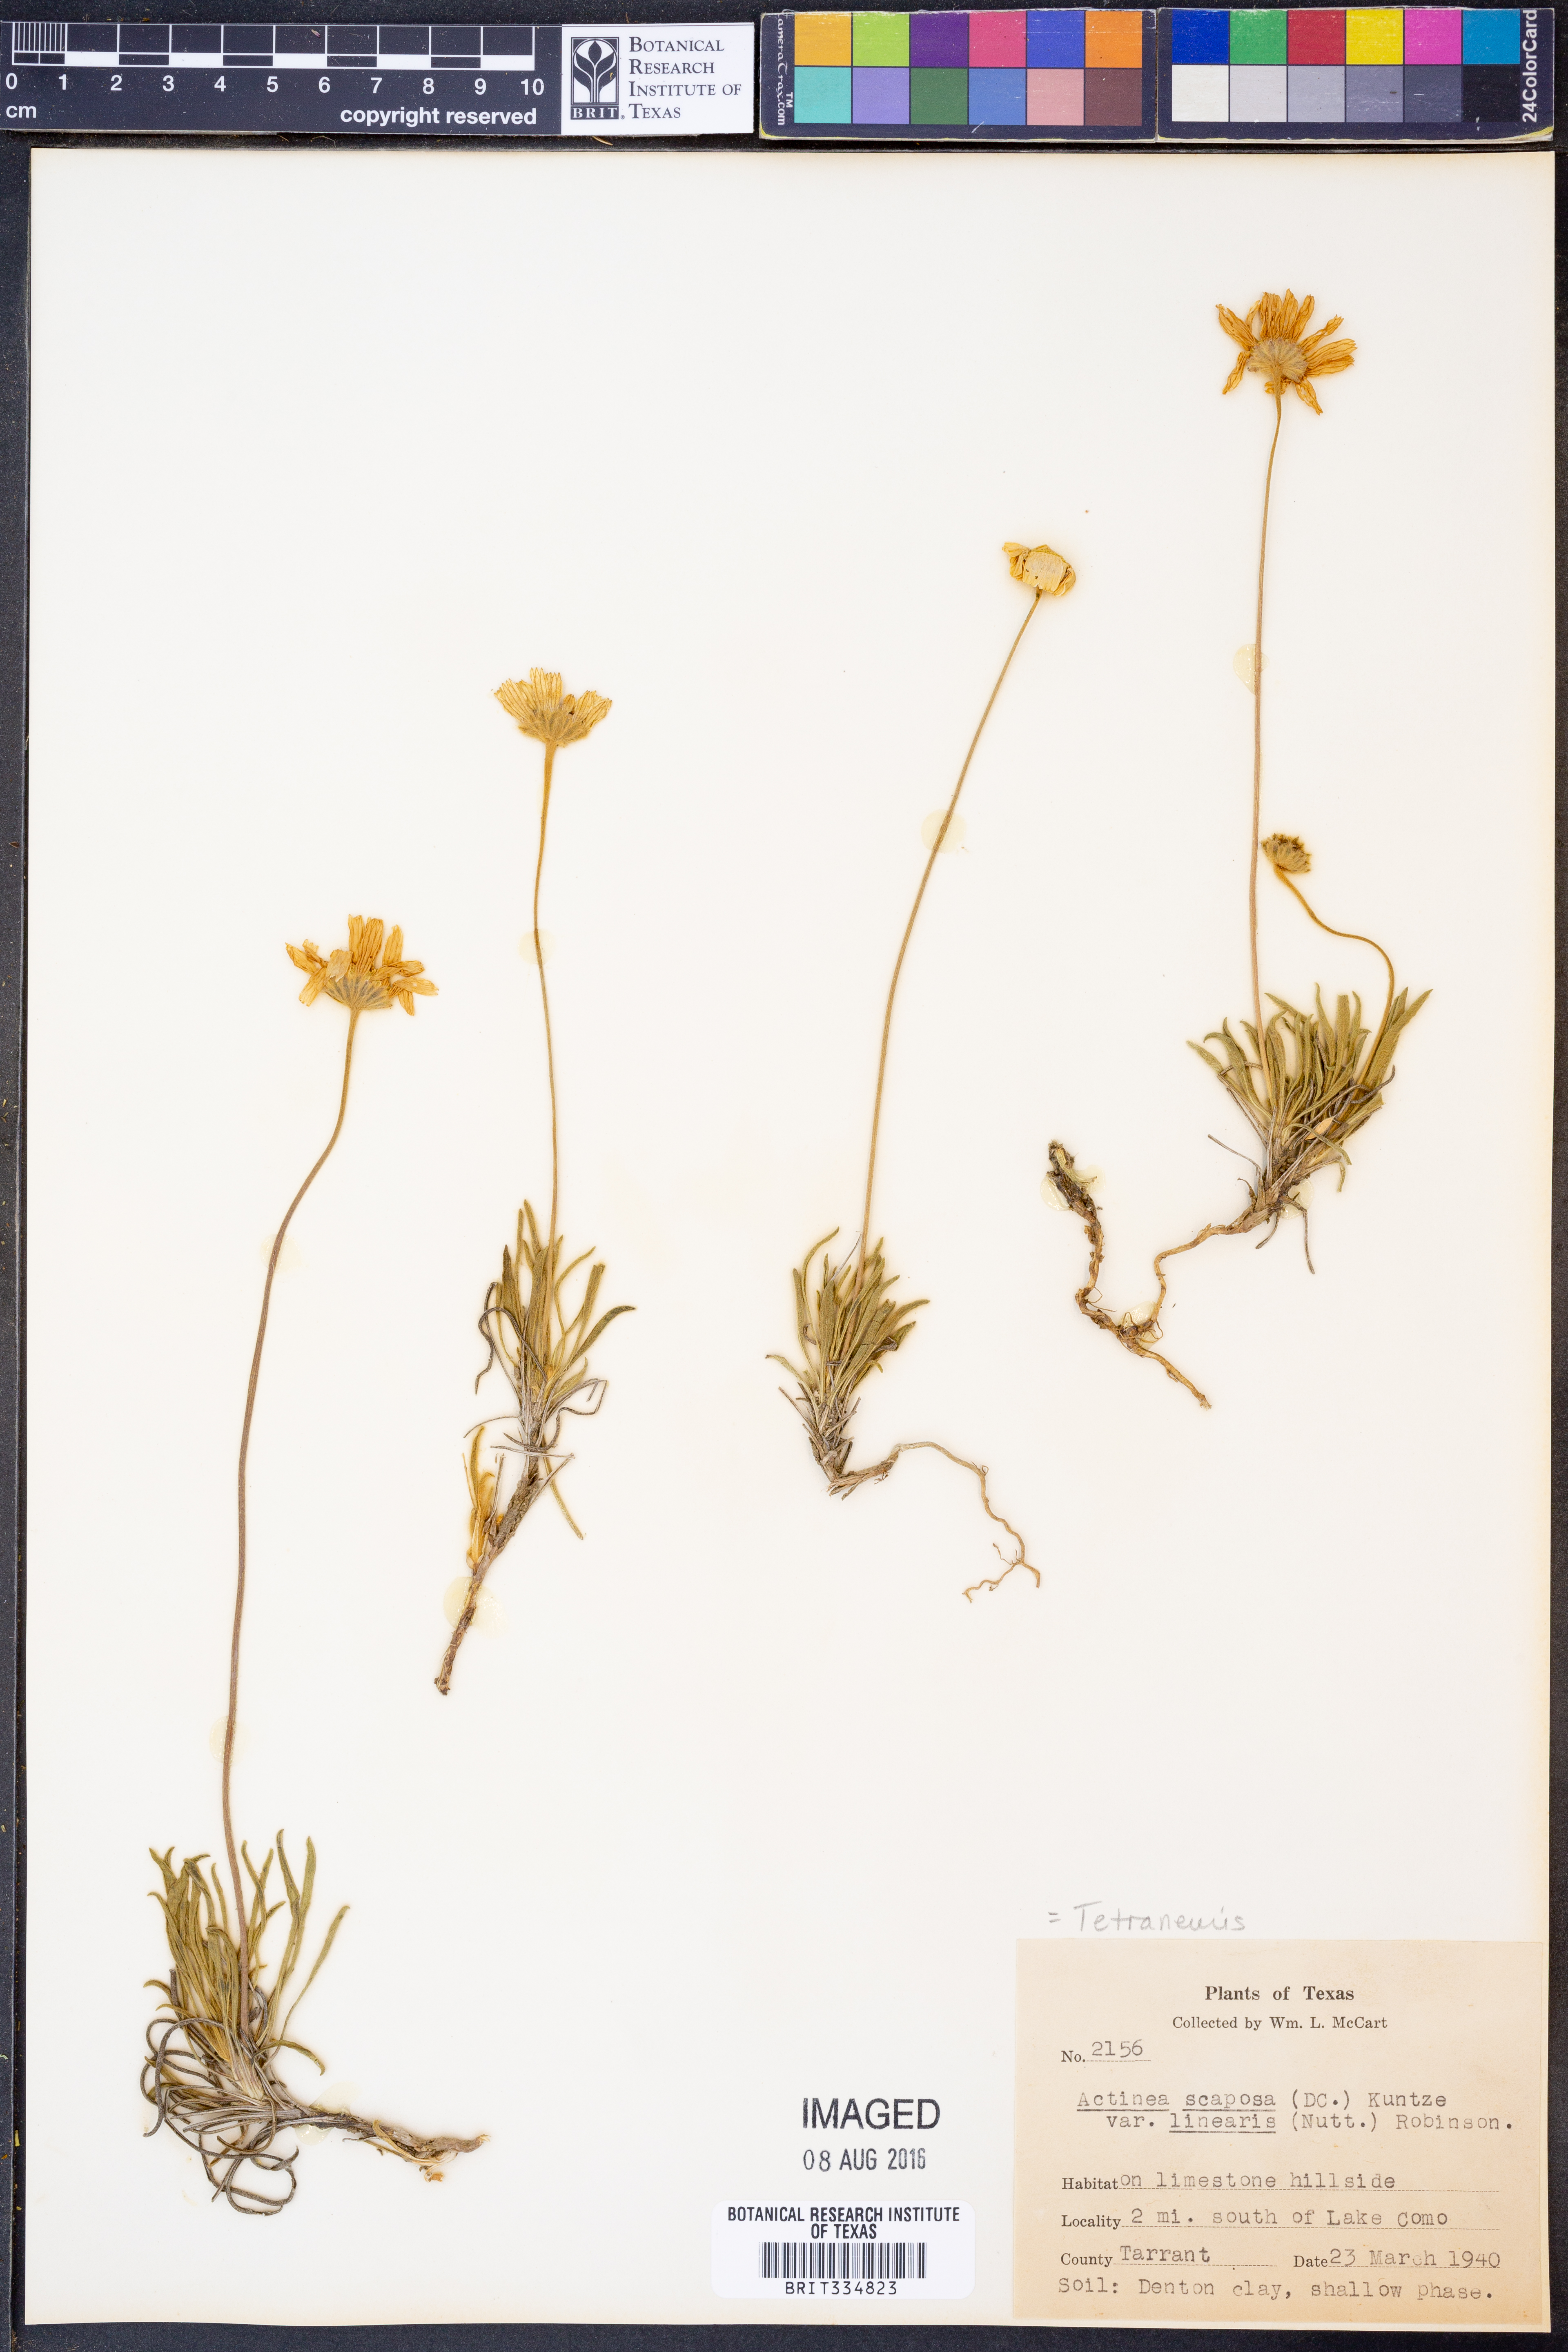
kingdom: Plantae
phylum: Tracheophyta
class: Magnoliopsida
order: Asterales
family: Asteraceae
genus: Tetraneuris
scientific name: Tetraneuris scaposa
